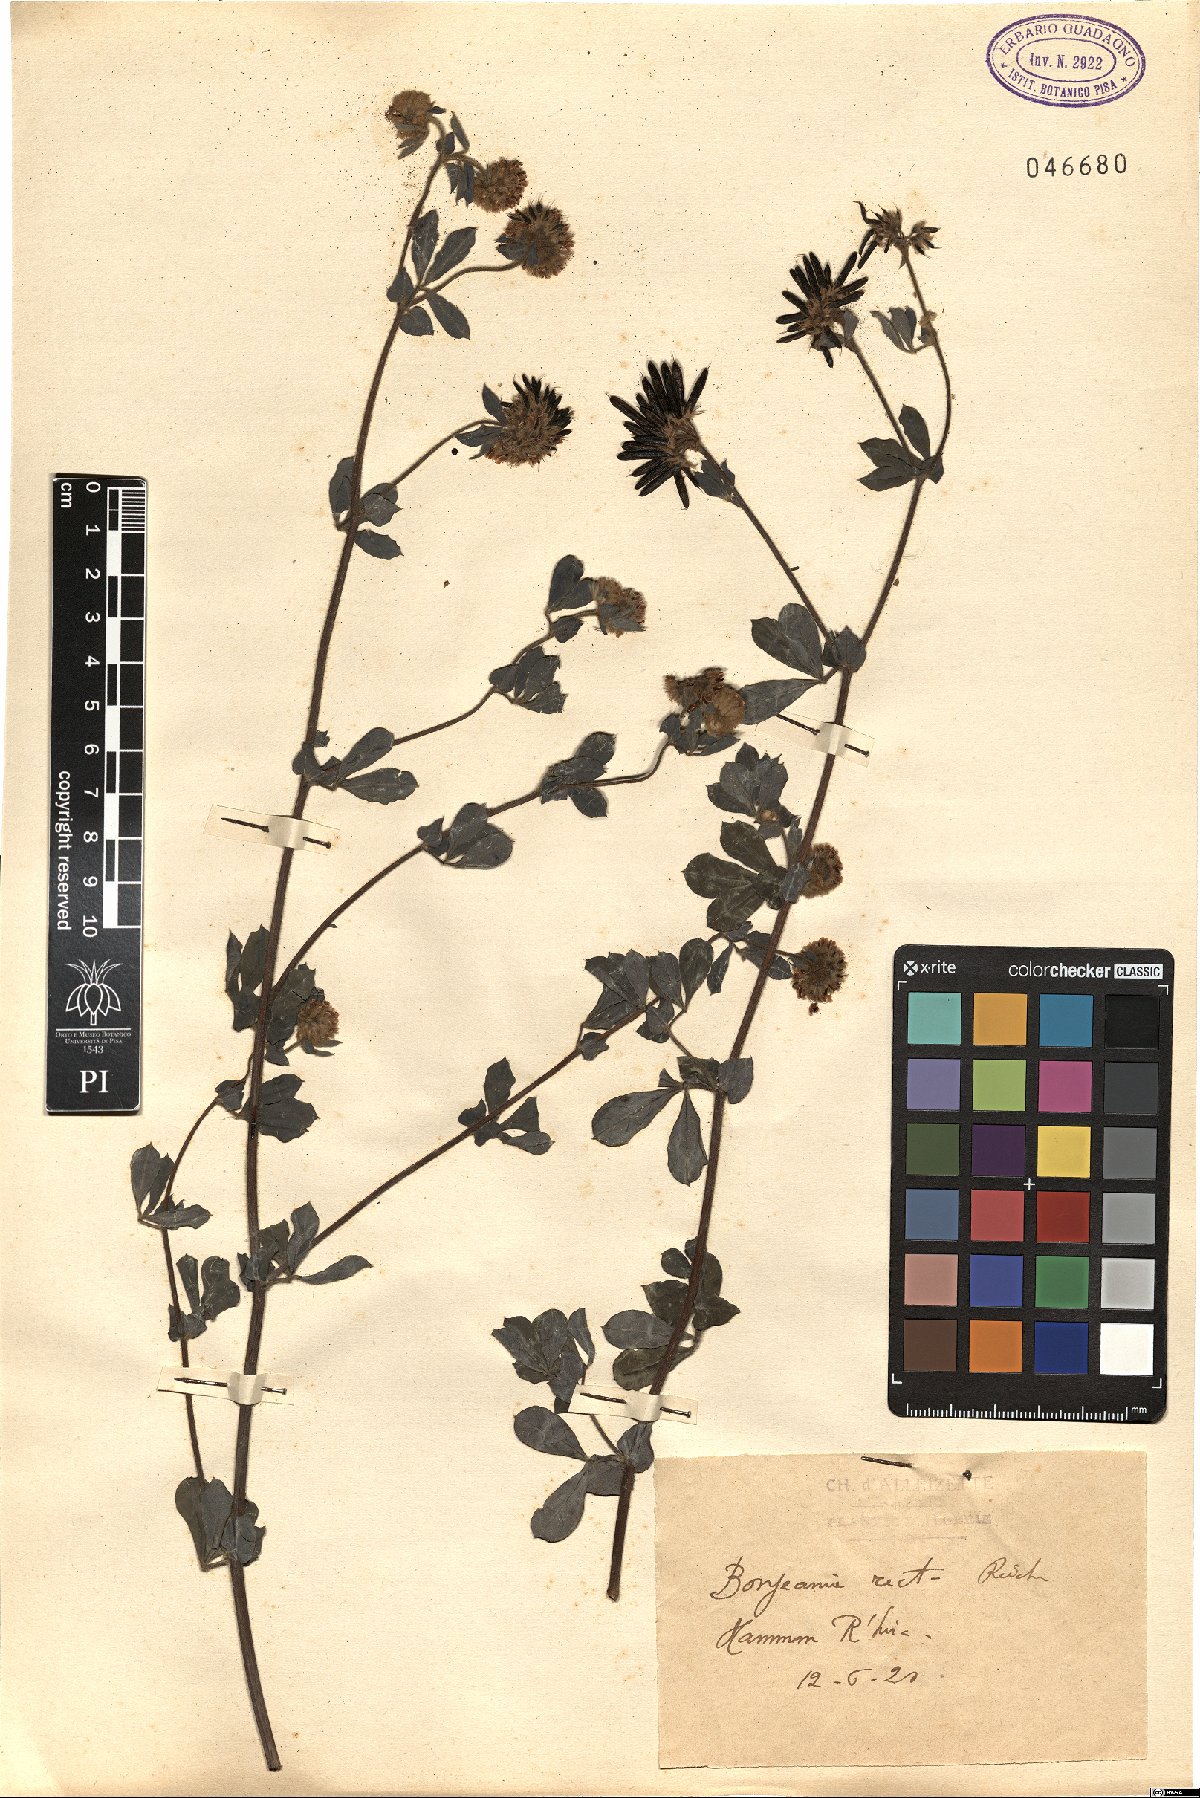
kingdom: Plantae
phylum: Tracheophyta
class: Magnoliopsida
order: Fabales
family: Fabaceae
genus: Lotus
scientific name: Lotus rectus
